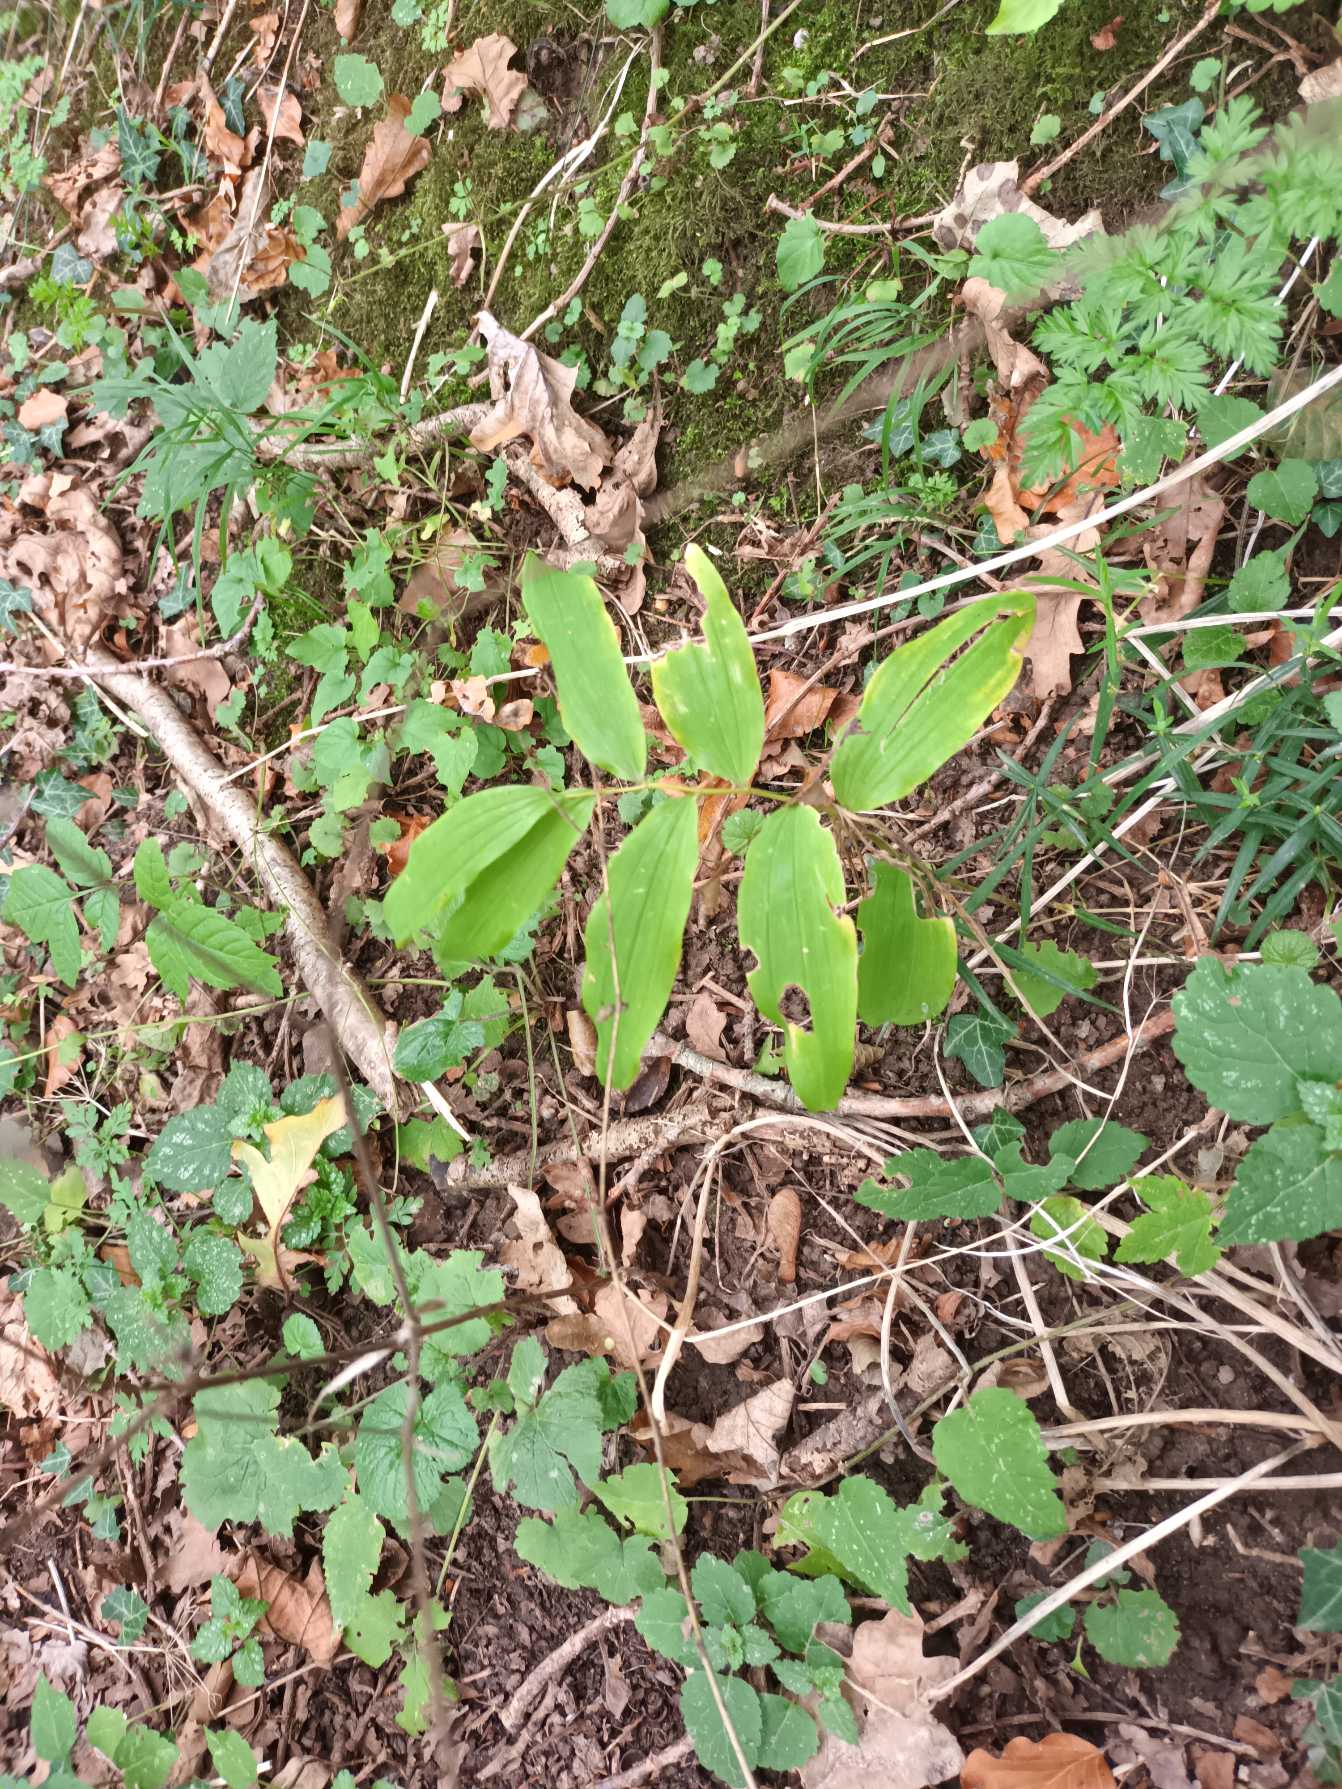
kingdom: Plantae
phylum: Tracheophyta
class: Liliopsida
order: Asparagales
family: Asparagaceae
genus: Polygonatum
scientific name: Polygonatum multiflorum
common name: Stor konval
